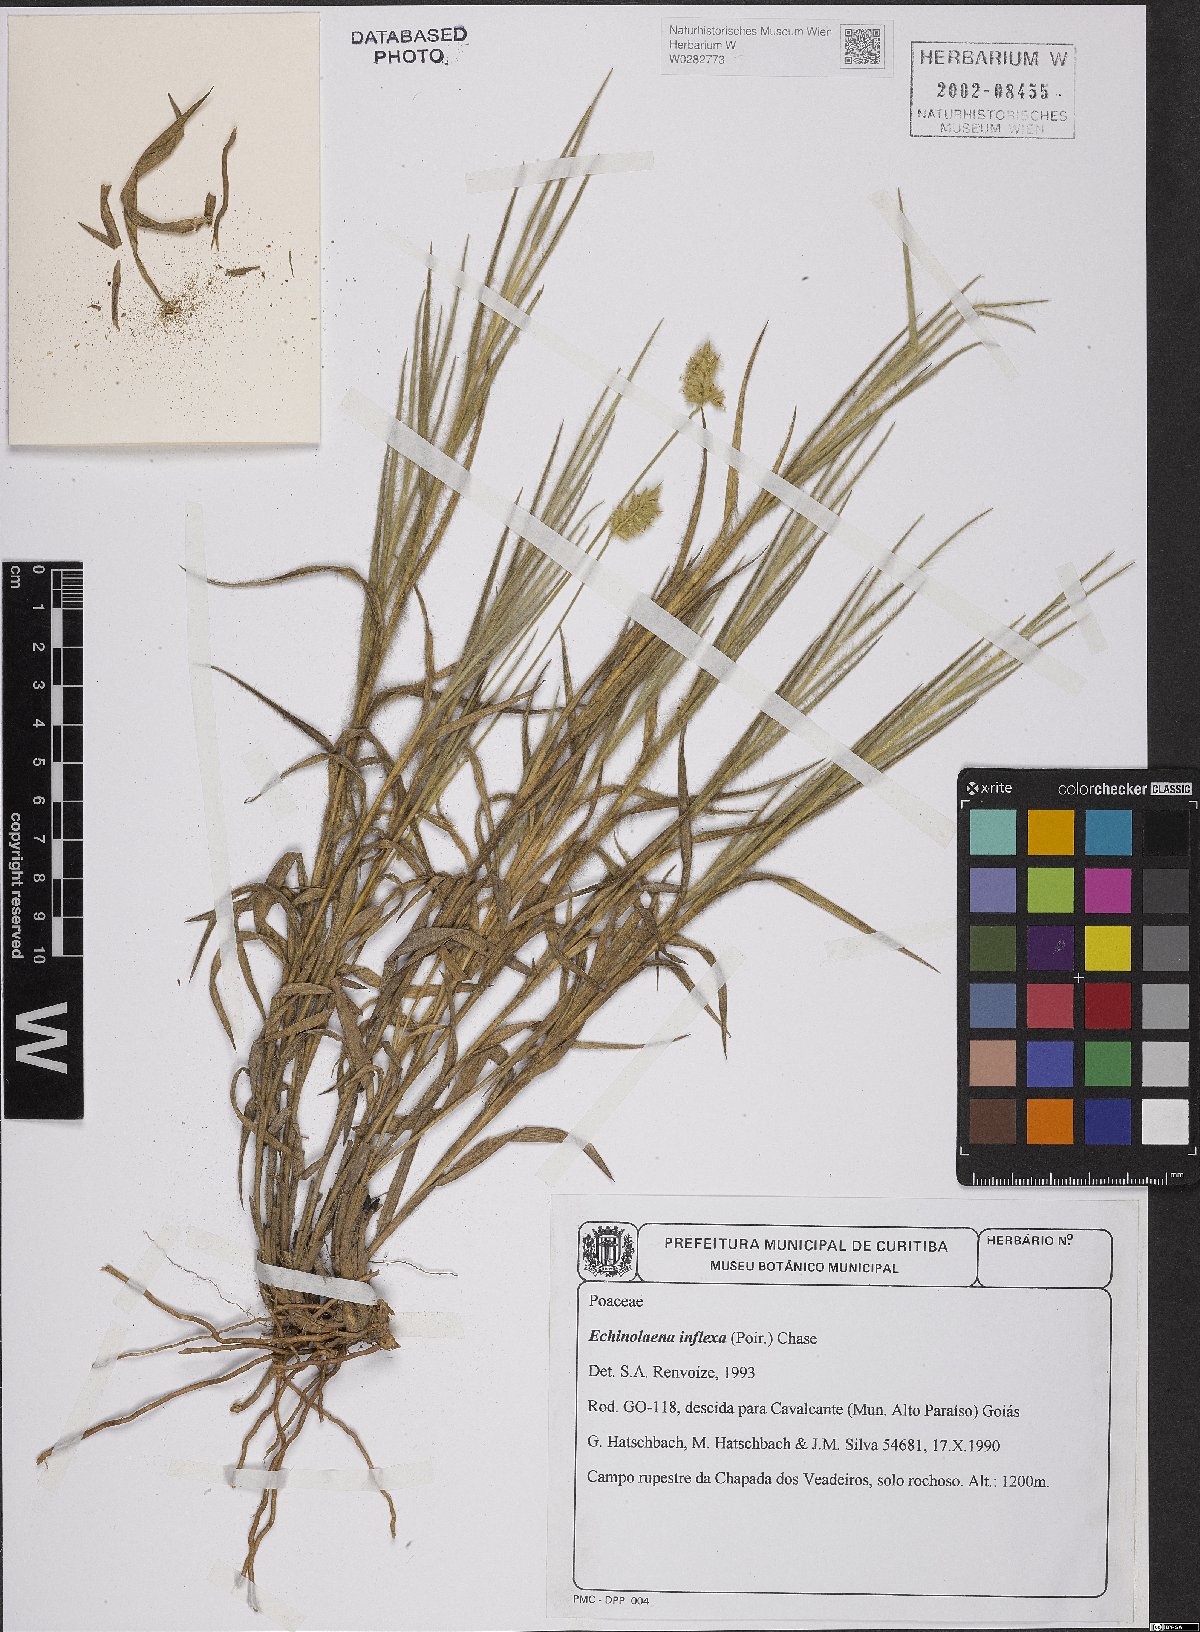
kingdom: Plantae
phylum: Tracheophyta
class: Liliopsida
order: Poales
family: Poaceae
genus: Echinolaena
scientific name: Echinolaena inflexa
